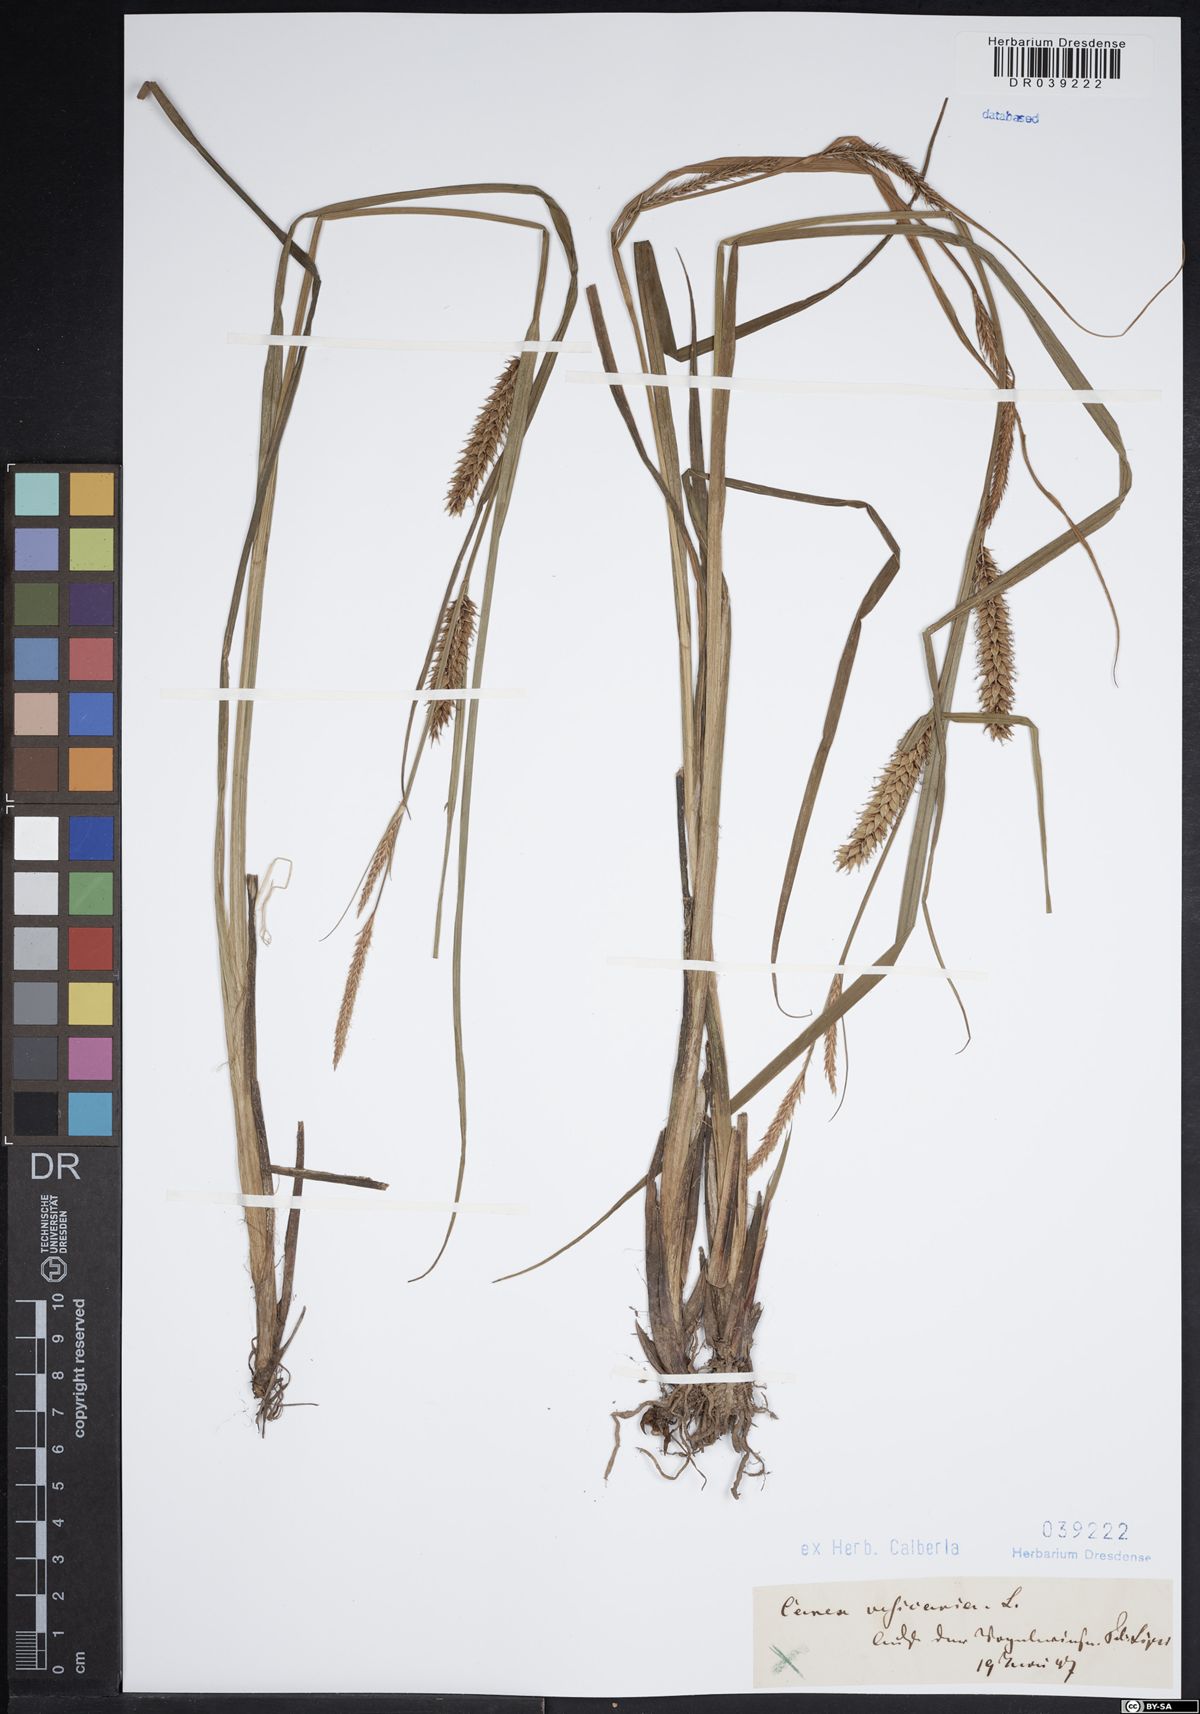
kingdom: Plantae
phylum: Tracheophyta
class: Liliopsida
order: Poales
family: Cyperaceae
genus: Carex
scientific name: Carex vesicaria
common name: Bladder-sedge
